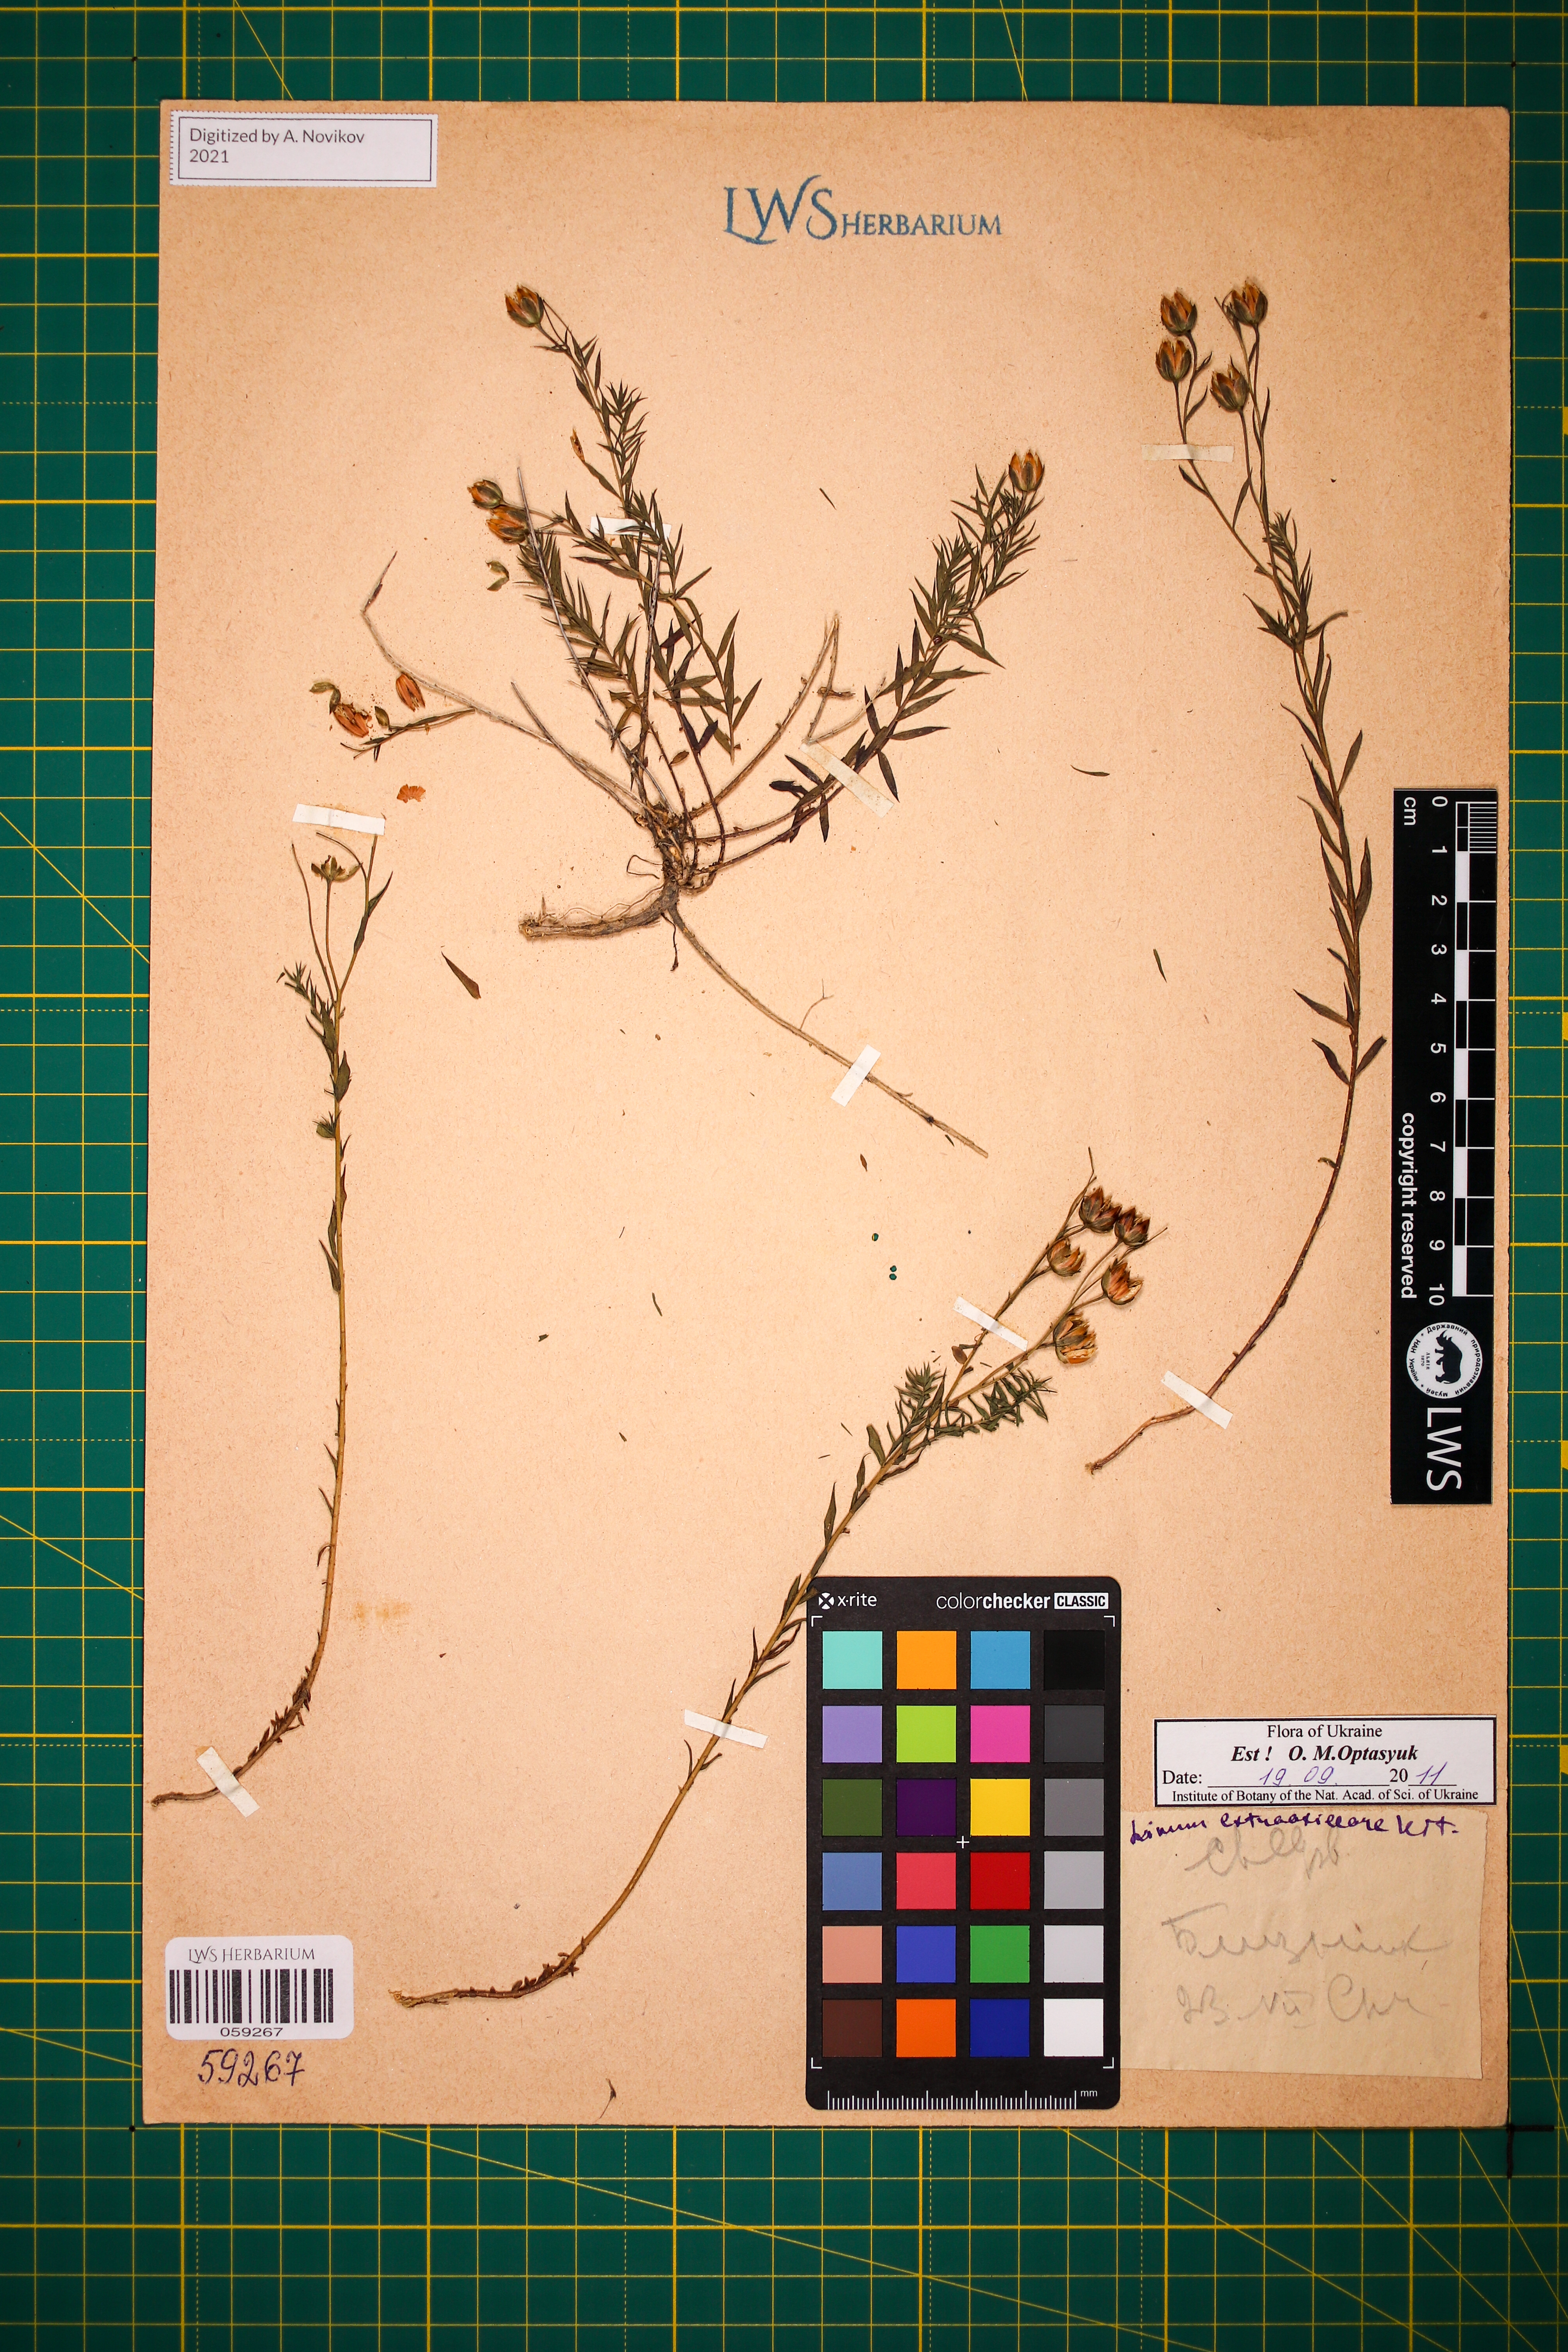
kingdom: Plantae
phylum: Tracheophyta
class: Magnoliopsida
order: Malpighiales
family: Linaceae
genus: Linum
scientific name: Linum perenne
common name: Blue flax
